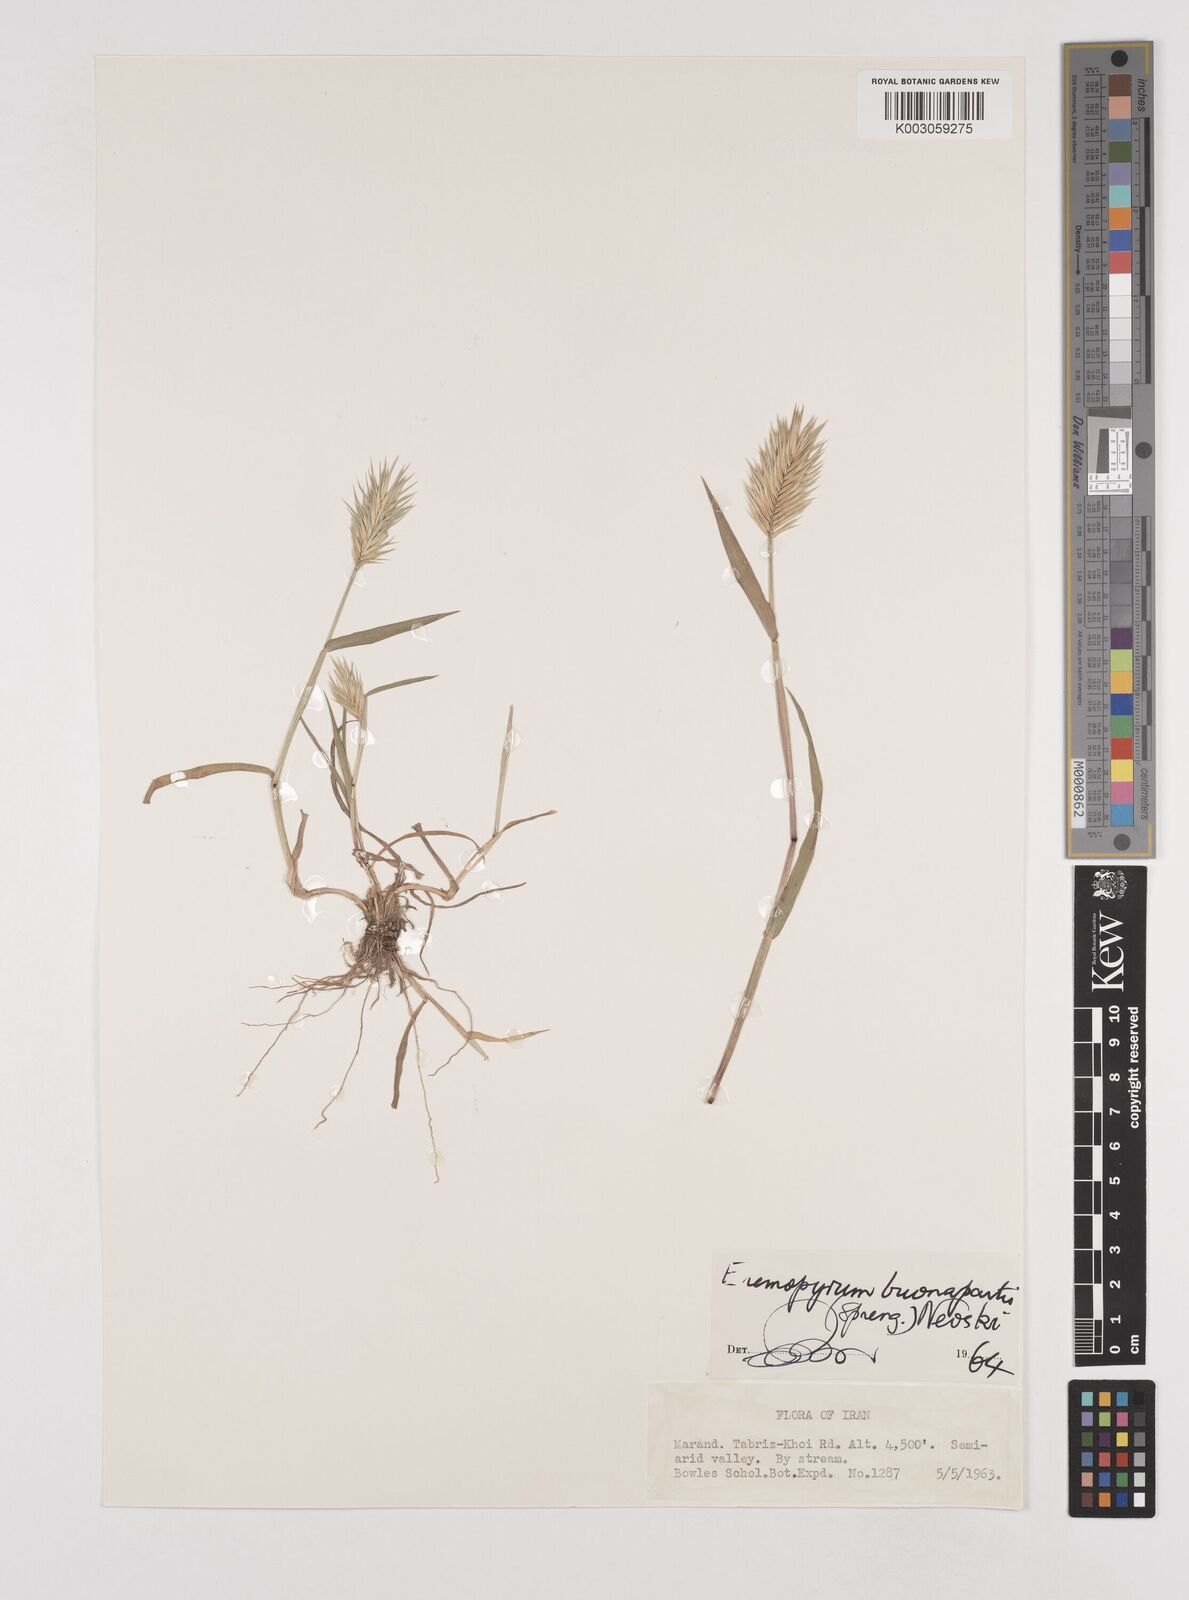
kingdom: Plantae
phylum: Tracheophyta
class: Liliopsida
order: Poales
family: Poaceae
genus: Eremopyrum
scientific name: Eremopyrum bonaepartis
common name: Tapertip false wheatgrass
